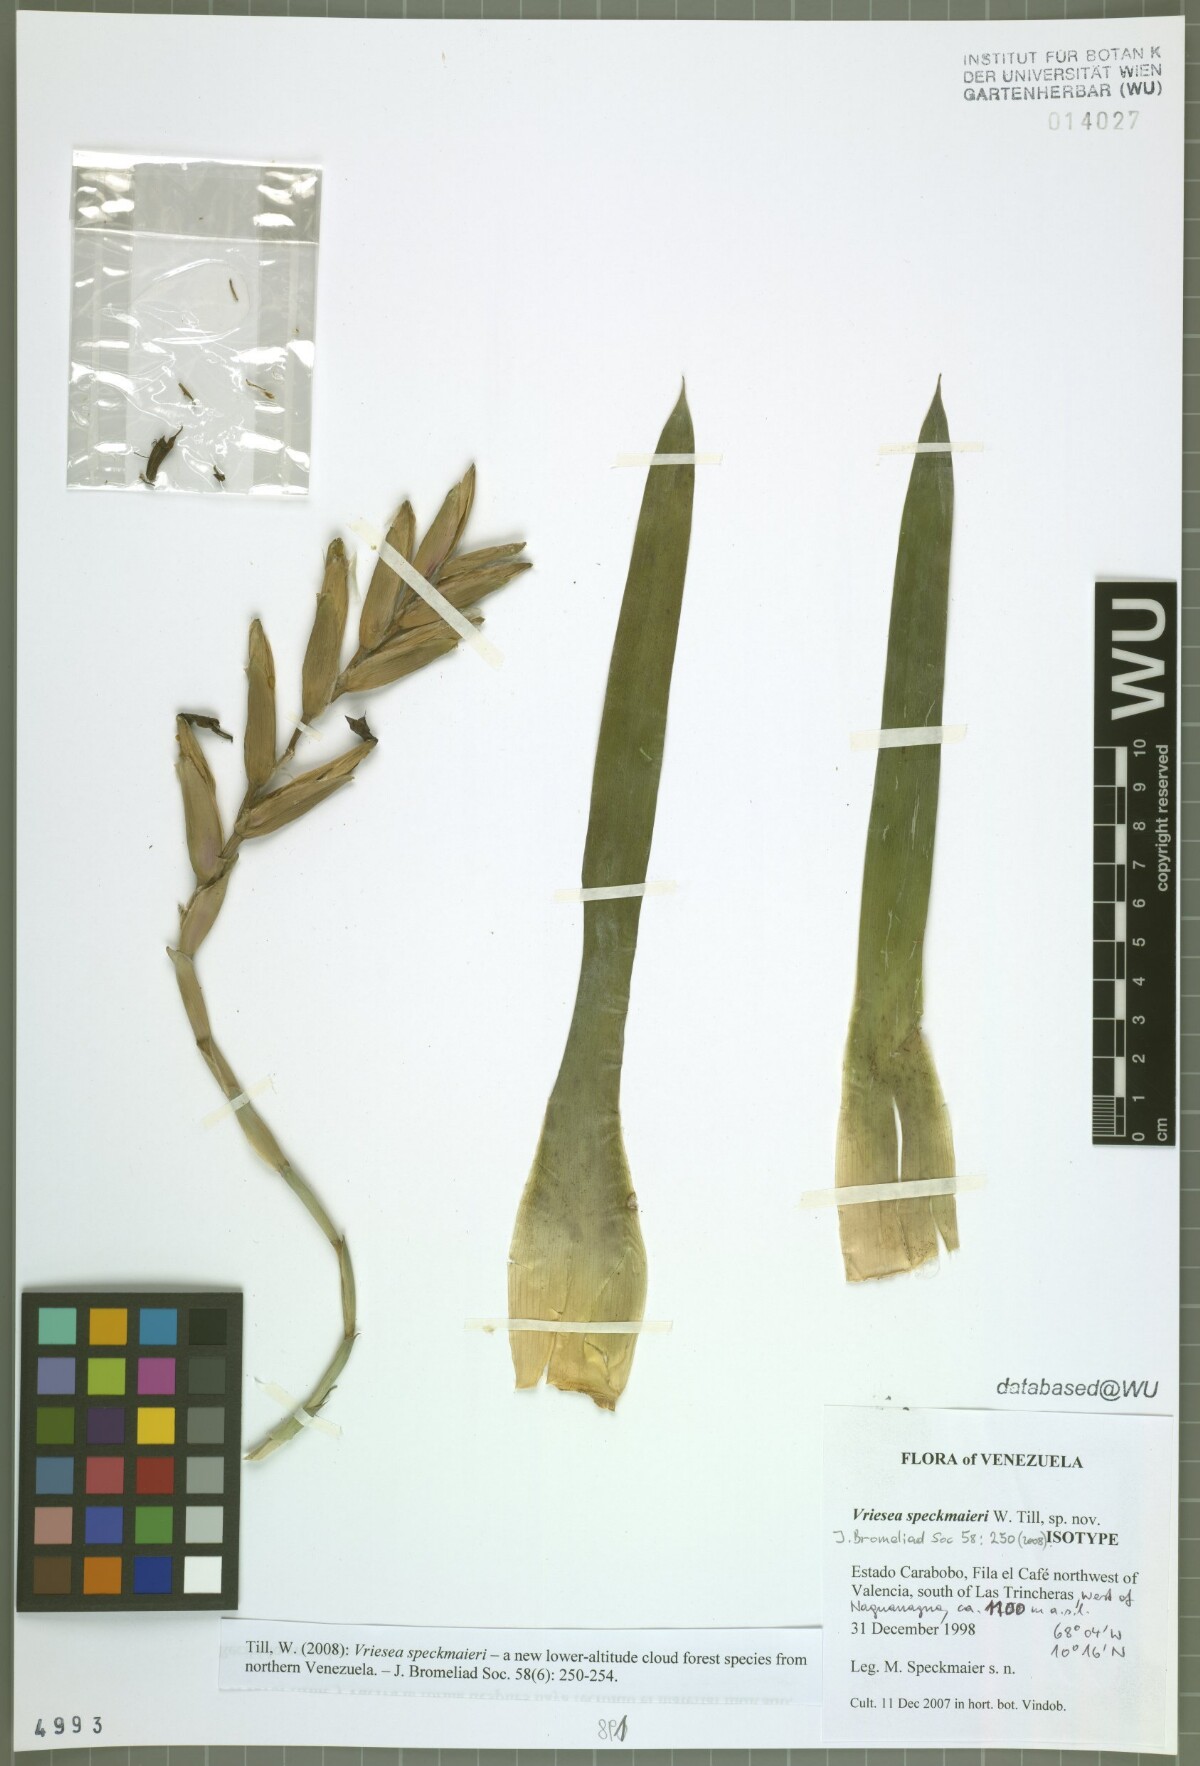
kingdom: Plantae
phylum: Tracheophyta
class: Liliopsida
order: Poales
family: Bromeliaceae
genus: Vriesea
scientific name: Vriesea speckmaieri
